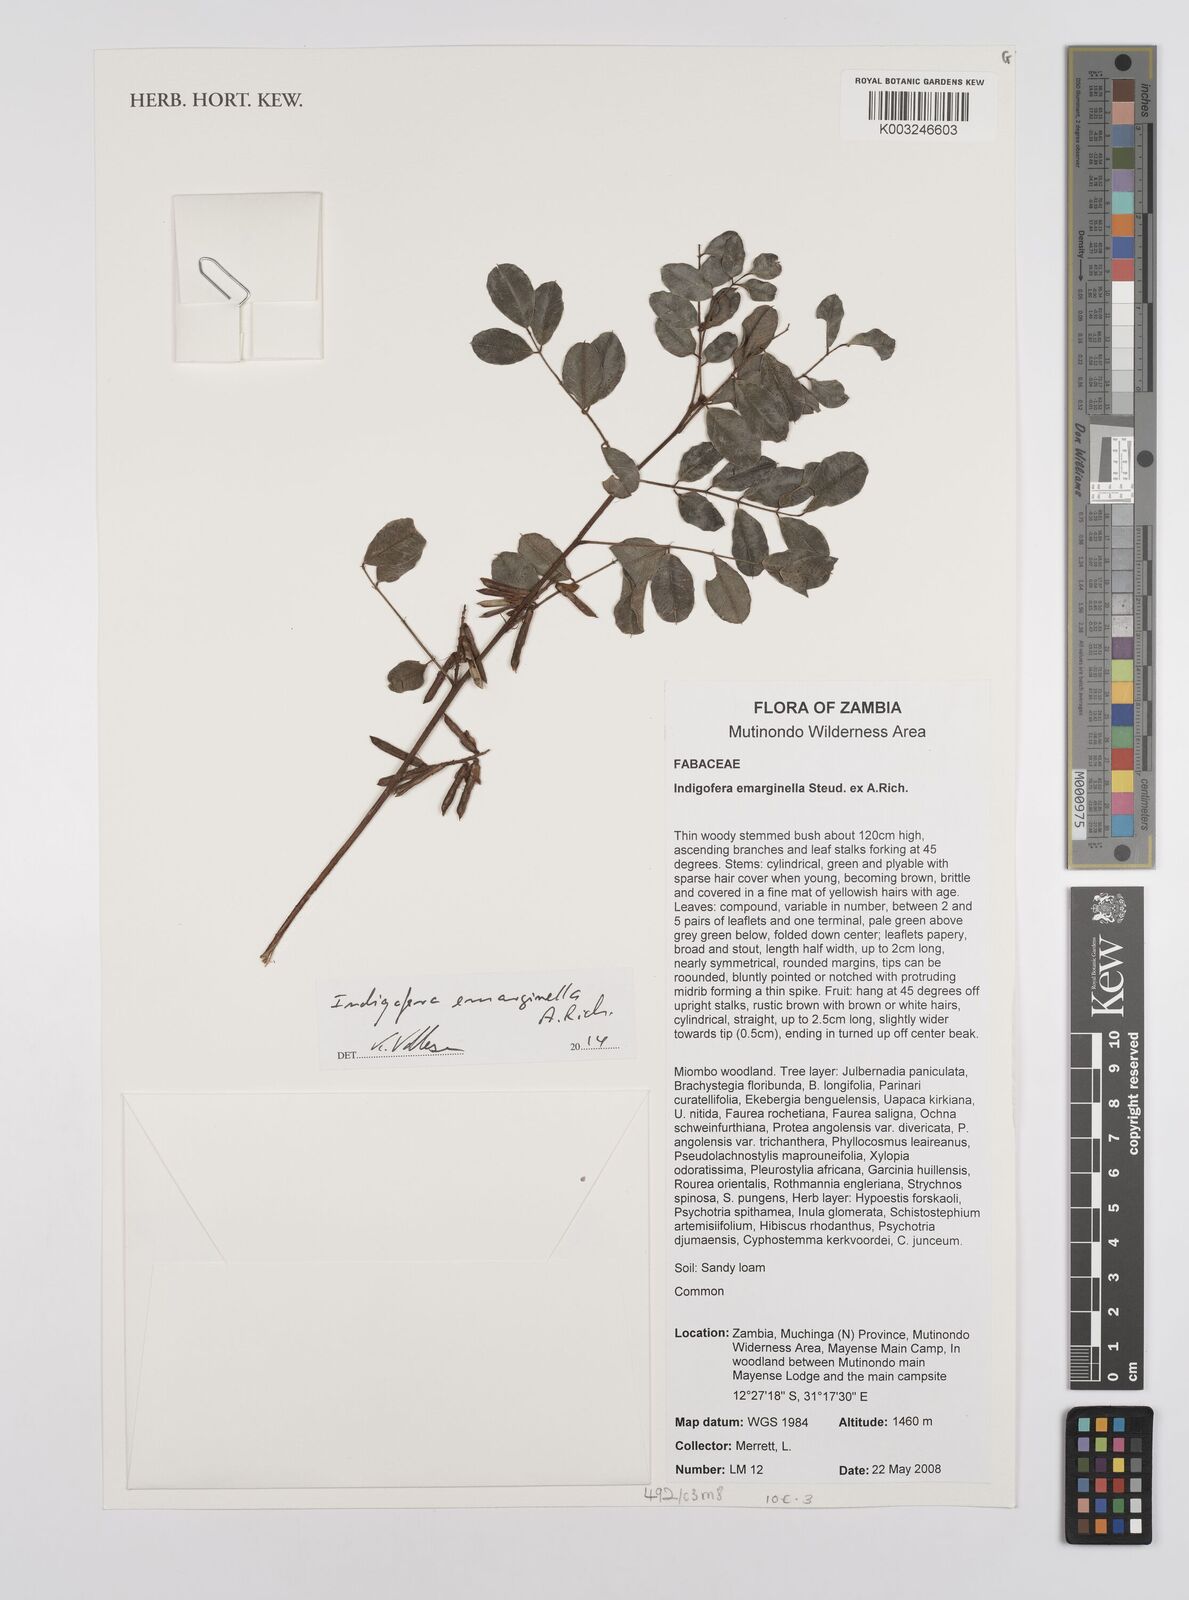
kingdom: Plantae
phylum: Tracheophyta
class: Magnoliopsida
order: Fabales
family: Fabaceae
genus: Indigofera
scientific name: Indigofera emarginella
